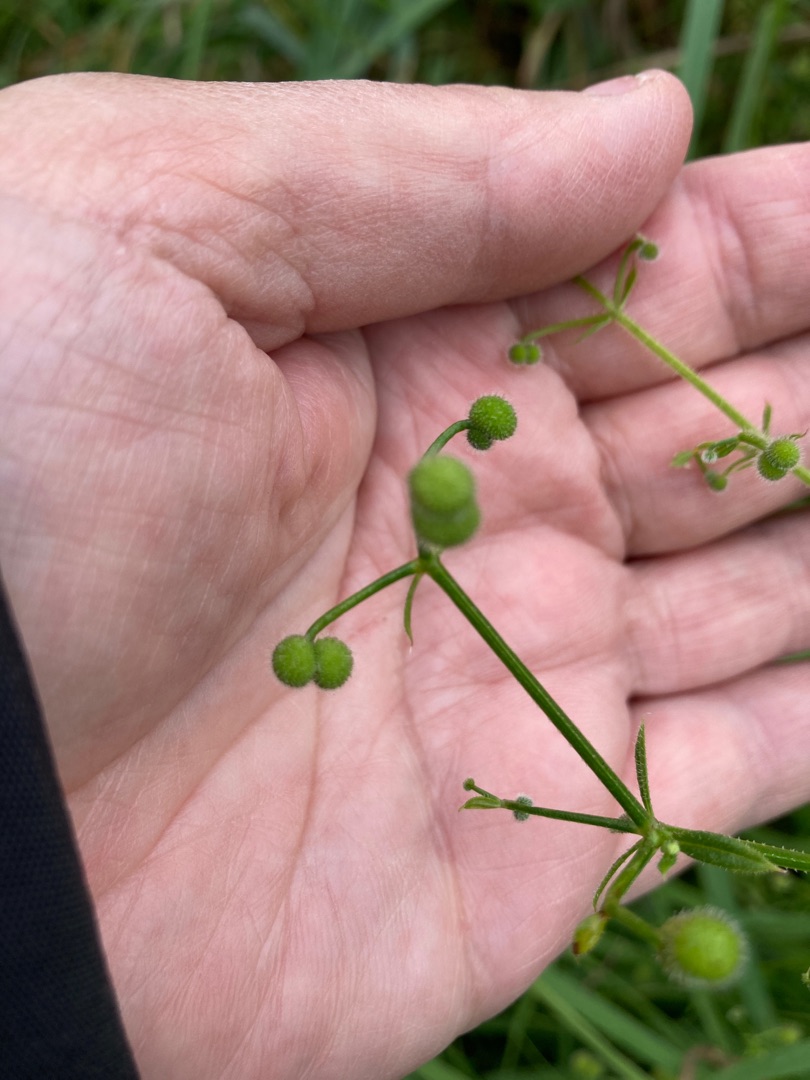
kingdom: Plantae
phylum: Tracheophyta
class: Magnoliopsida
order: Gentianales
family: Rubiaceae
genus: Galium
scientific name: Galium aparine
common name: Burre-snerre
